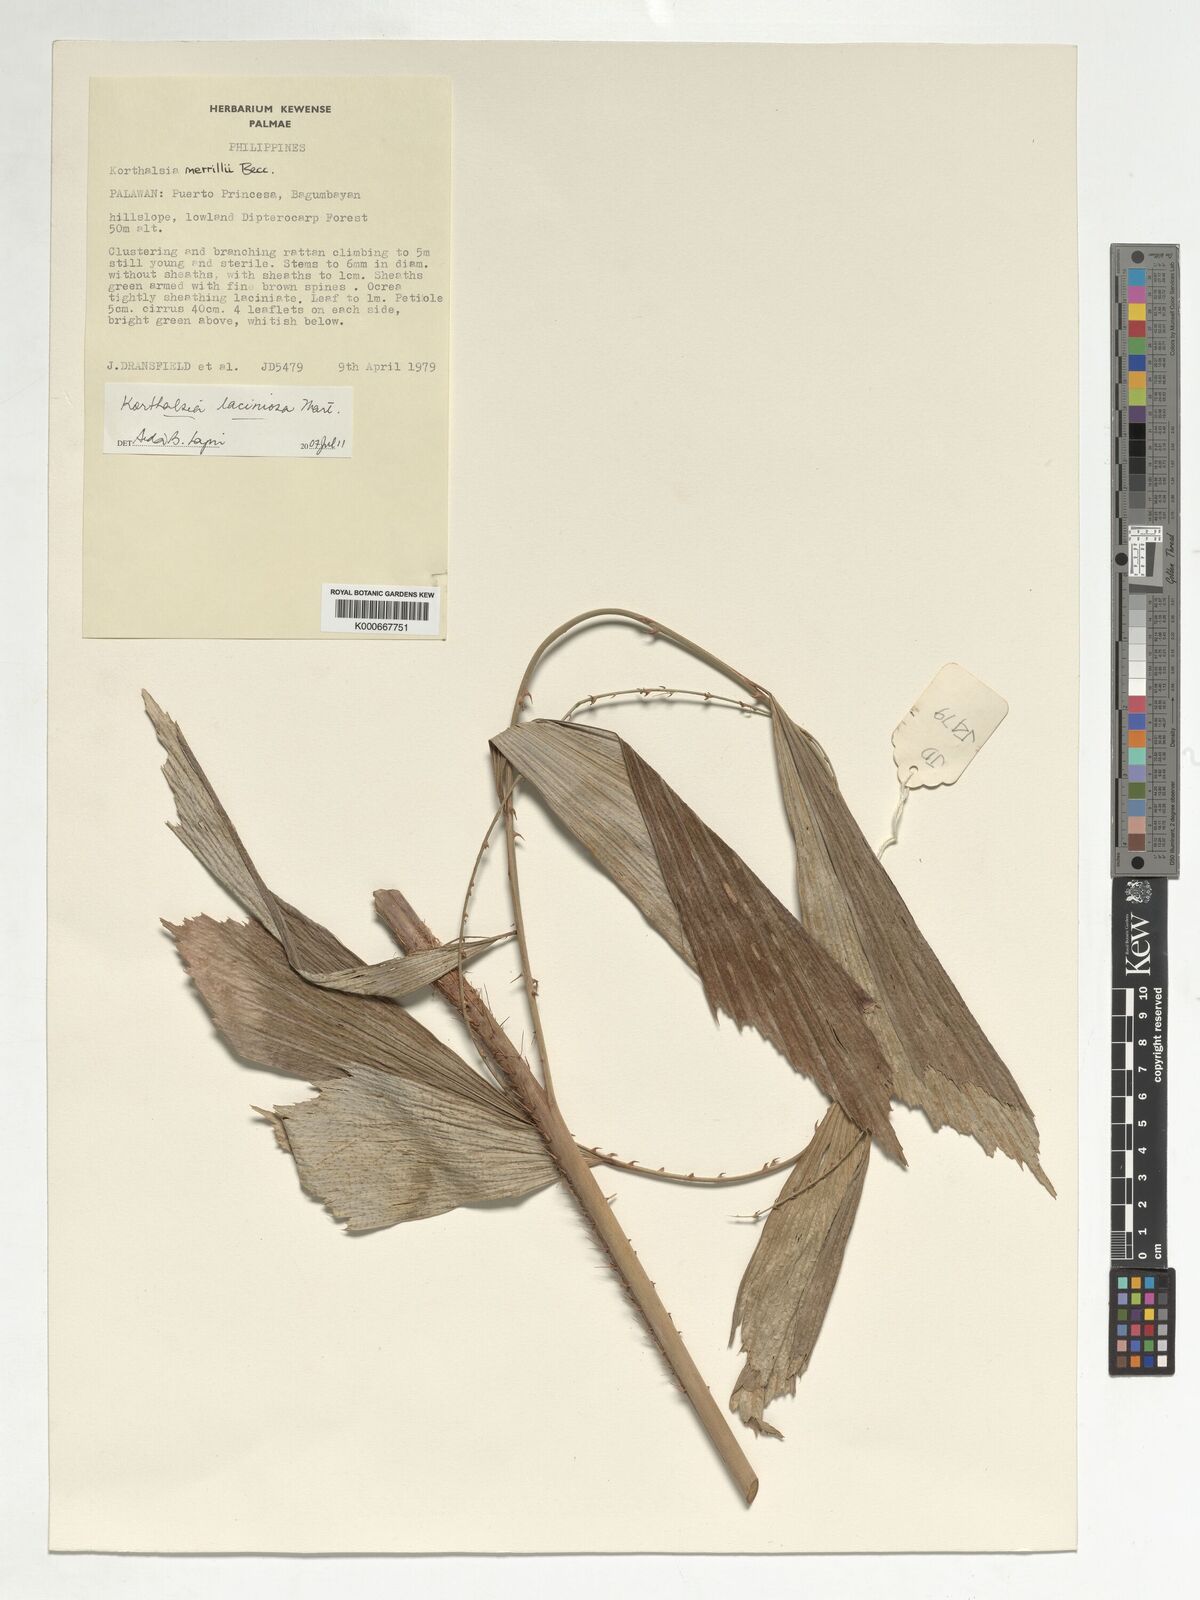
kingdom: Plantae
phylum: Tracheophyta
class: Liliopsida
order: Arecales
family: Arecaceae
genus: Korthalsia
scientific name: Korthalsia laciniosa
